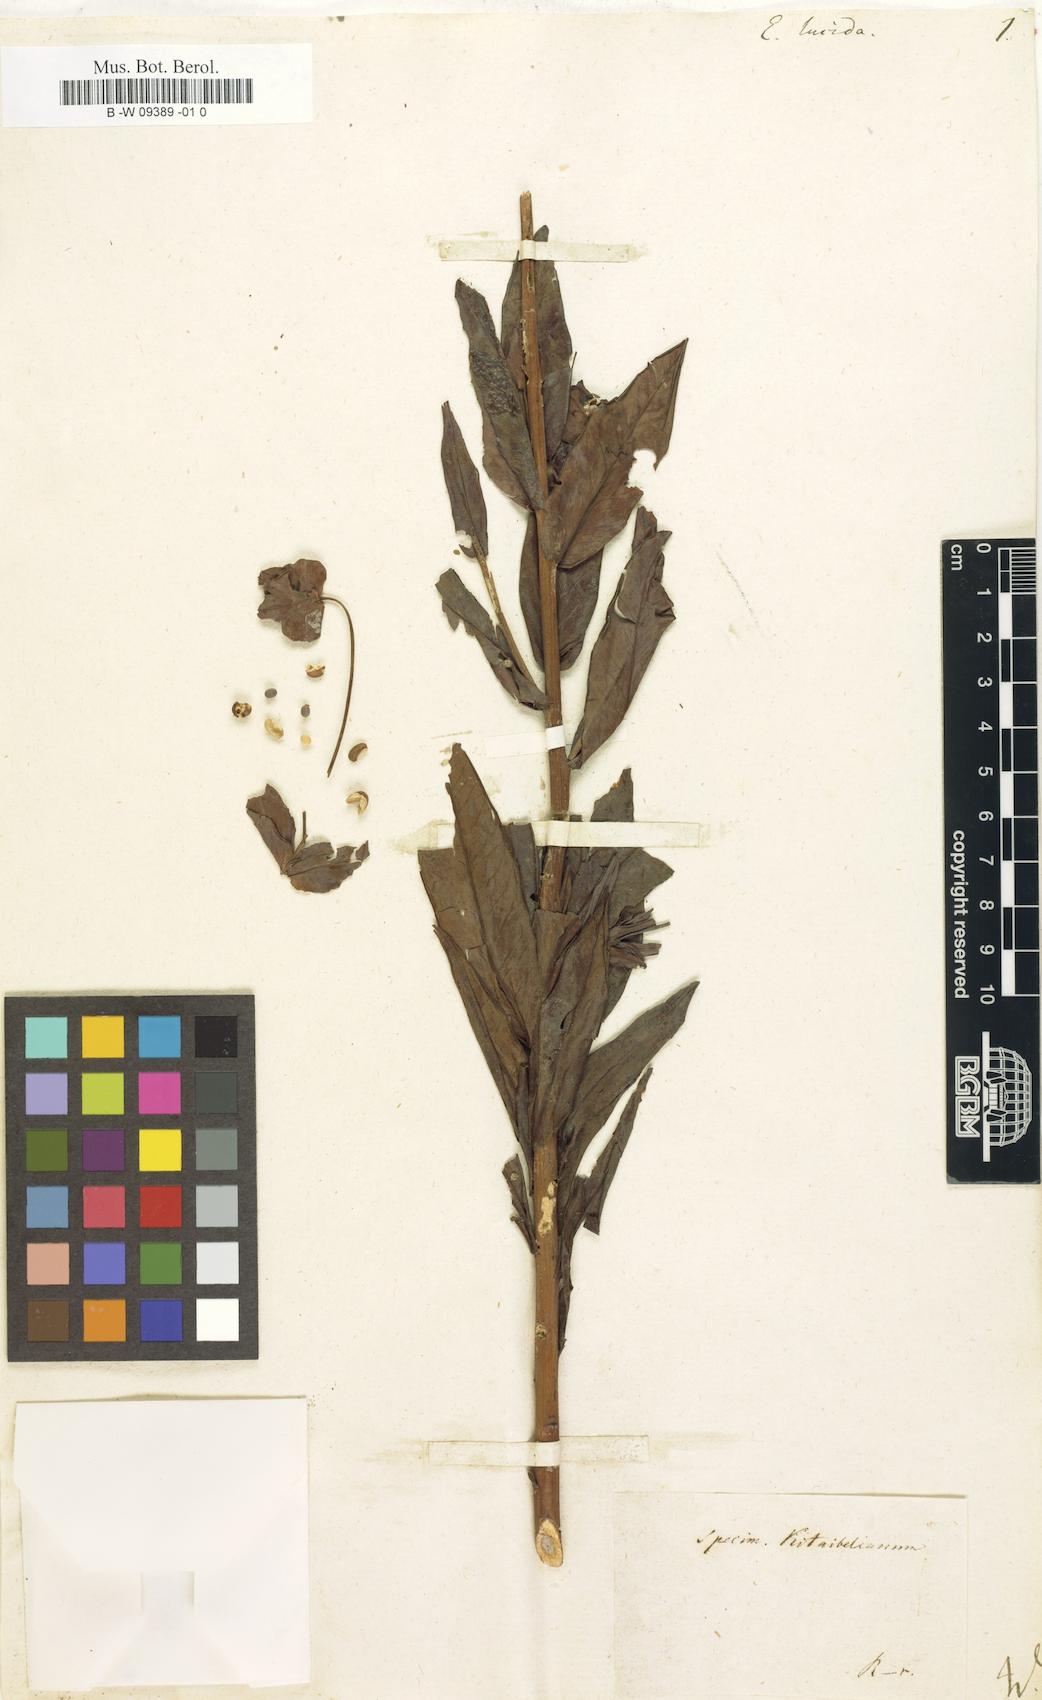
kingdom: Plantae
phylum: Tracheophyta
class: Magnoliopsida
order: Malpighiales
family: Euphorbiaceae
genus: Euphorbia
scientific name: Euphorbia lucida
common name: Shining spurge
